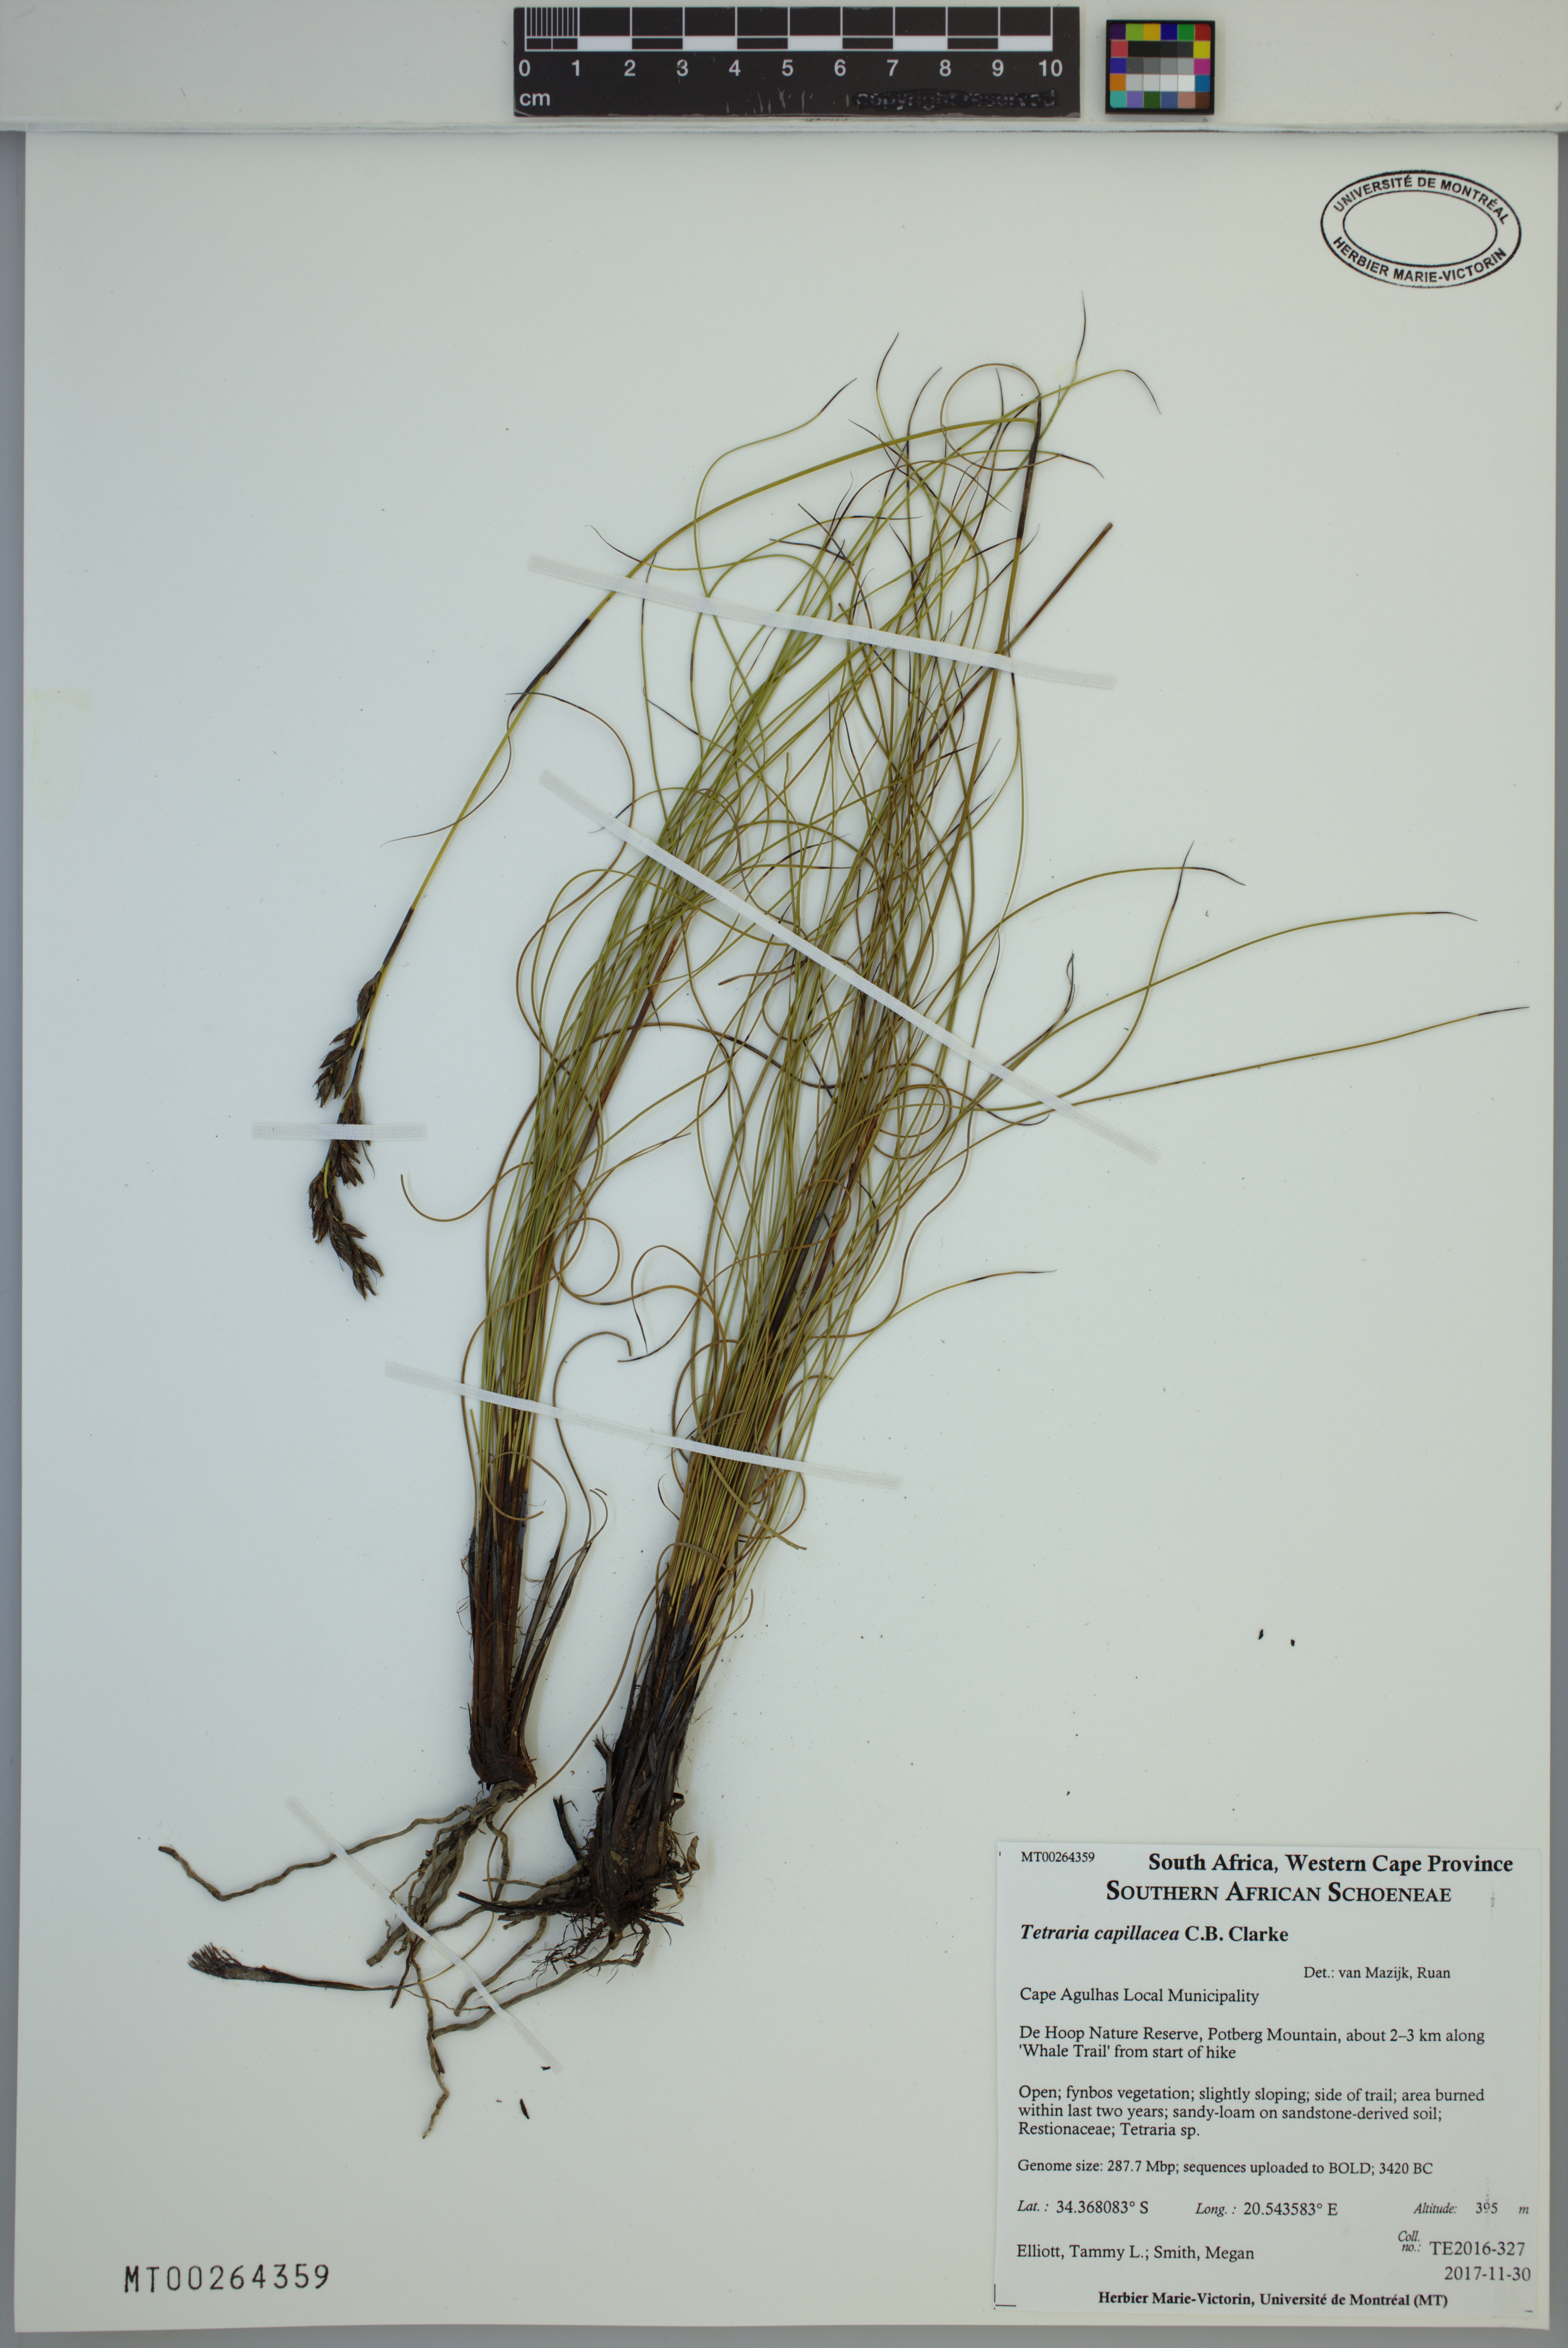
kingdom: Plantae
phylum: Tracheophyta
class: Liliopsida
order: Poales
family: Cyperaceae
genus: Tetraria
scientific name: Tetraria capillacea
